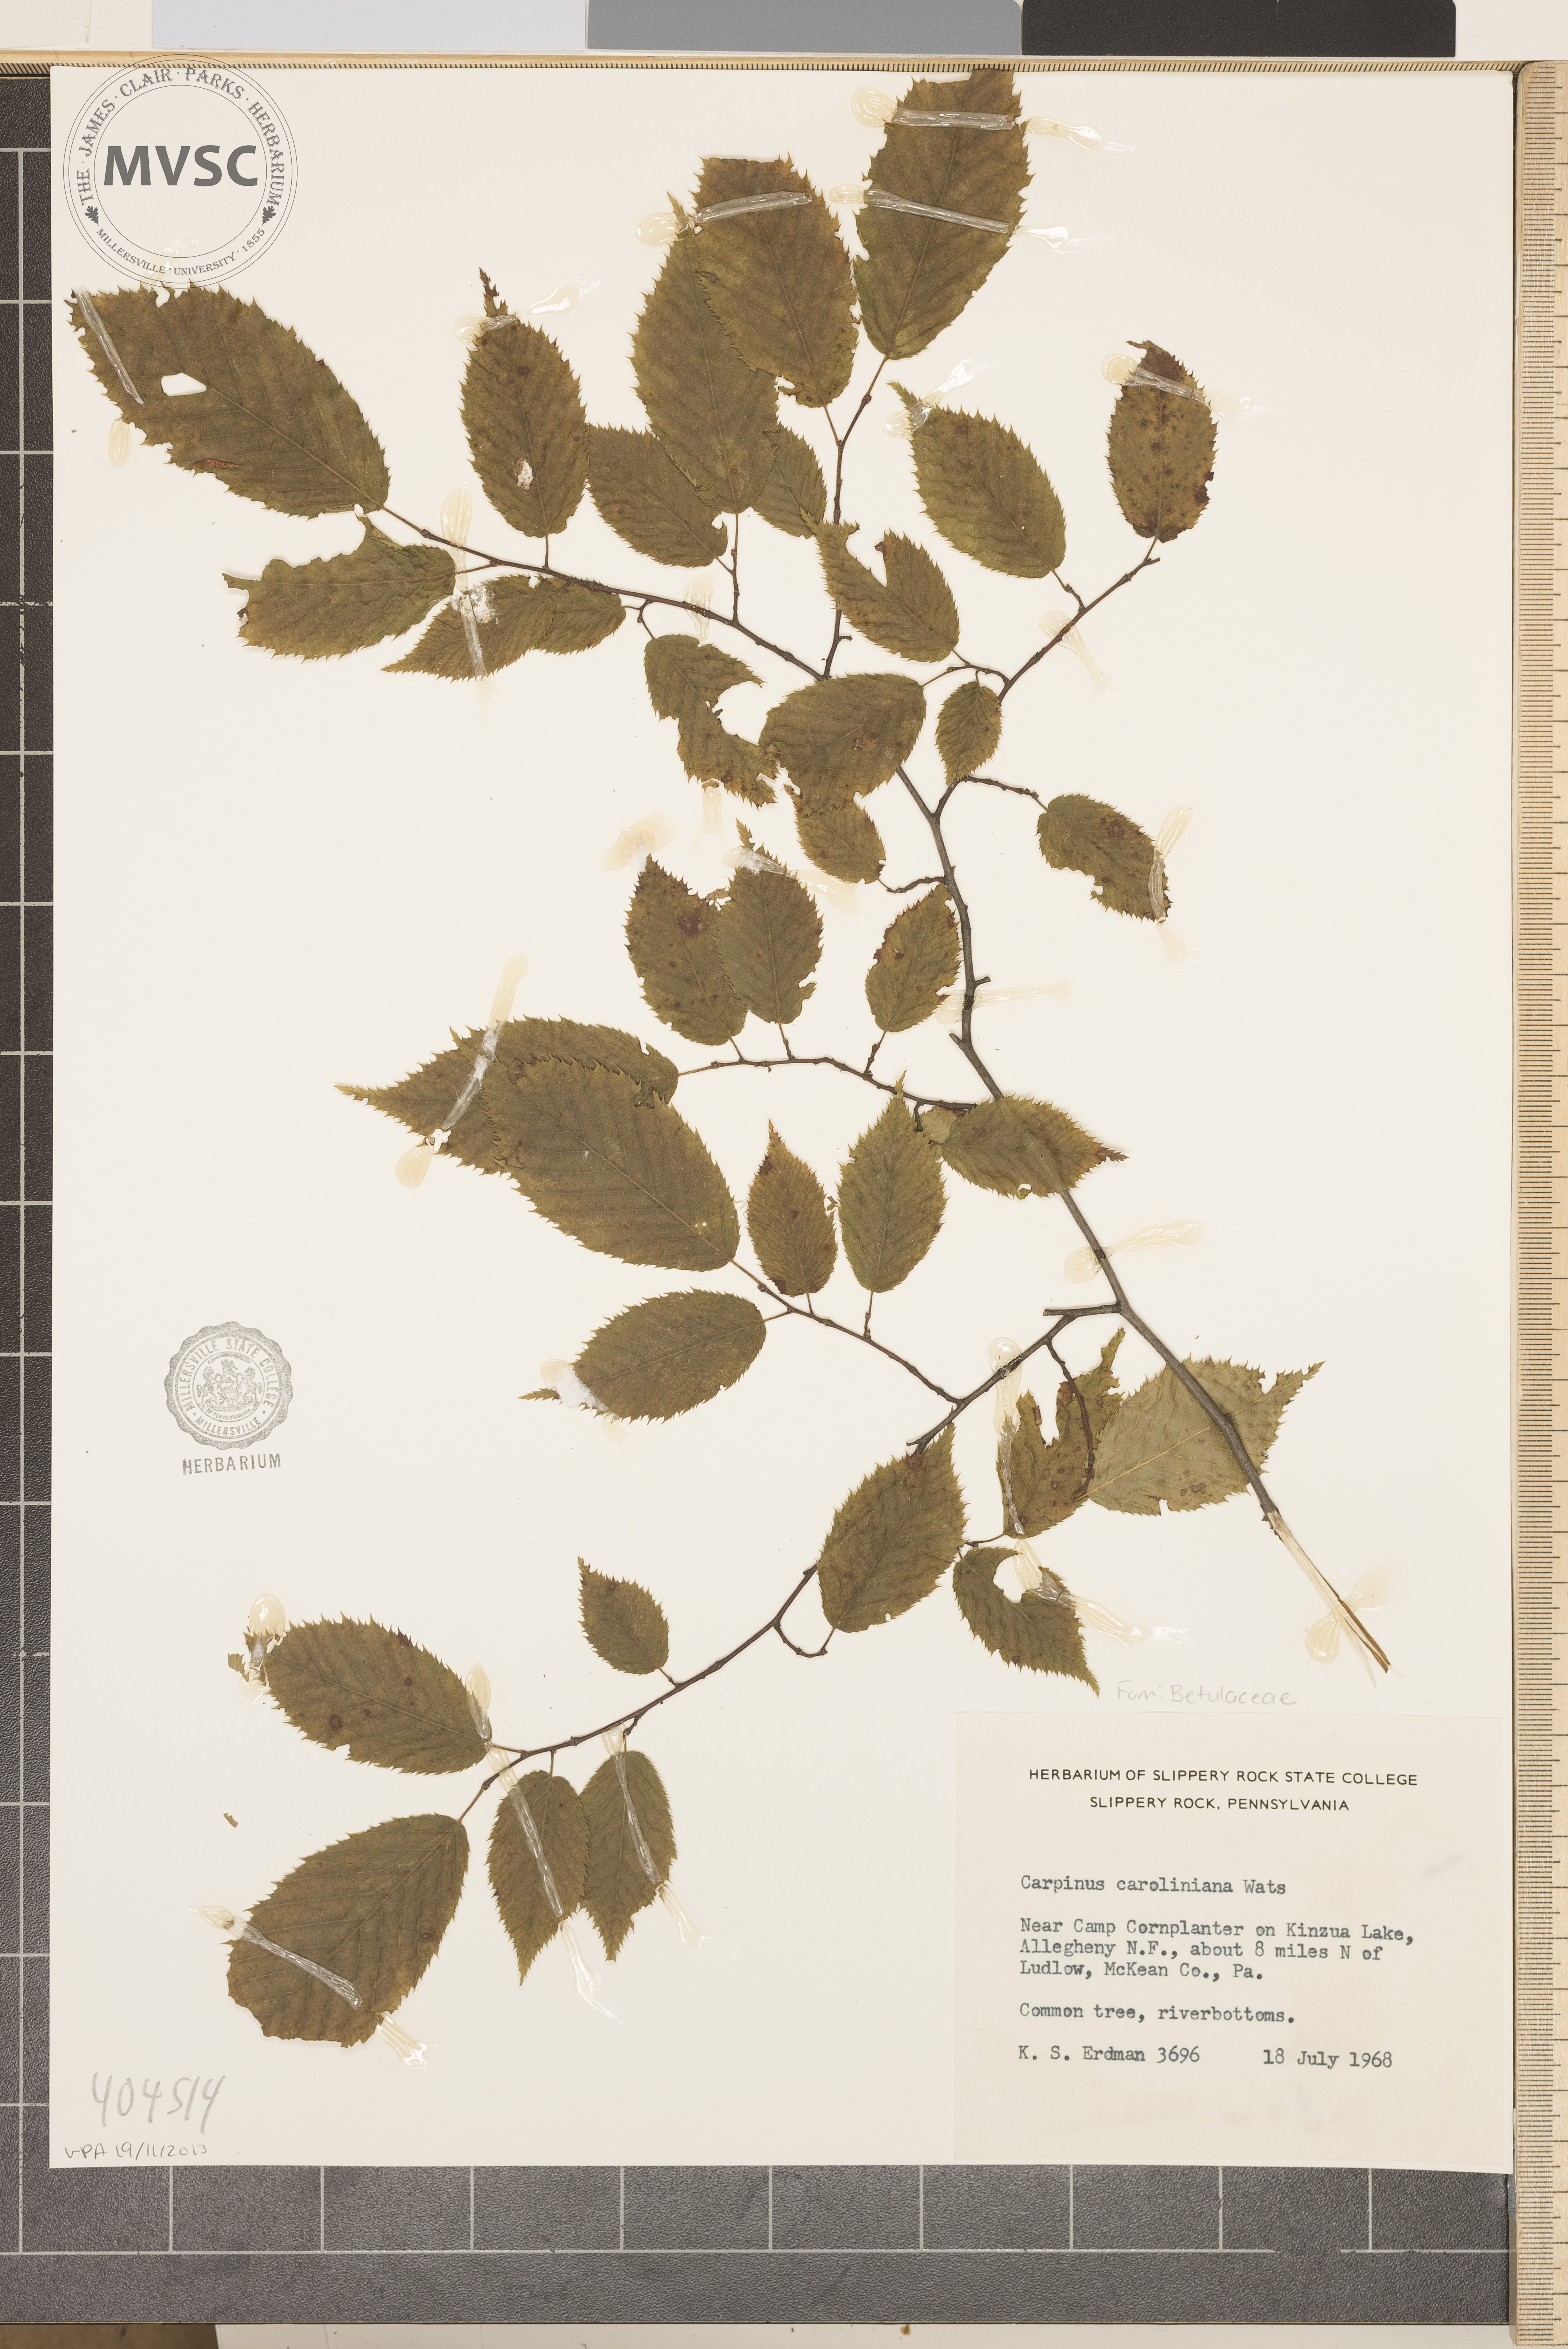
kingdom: Plantae
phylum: Tracheophyta
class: Magnoliopsida
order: Fagales
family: Betulaceae
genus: Carpinus
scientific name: Carpinus caroliniana
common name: American hornbeam
